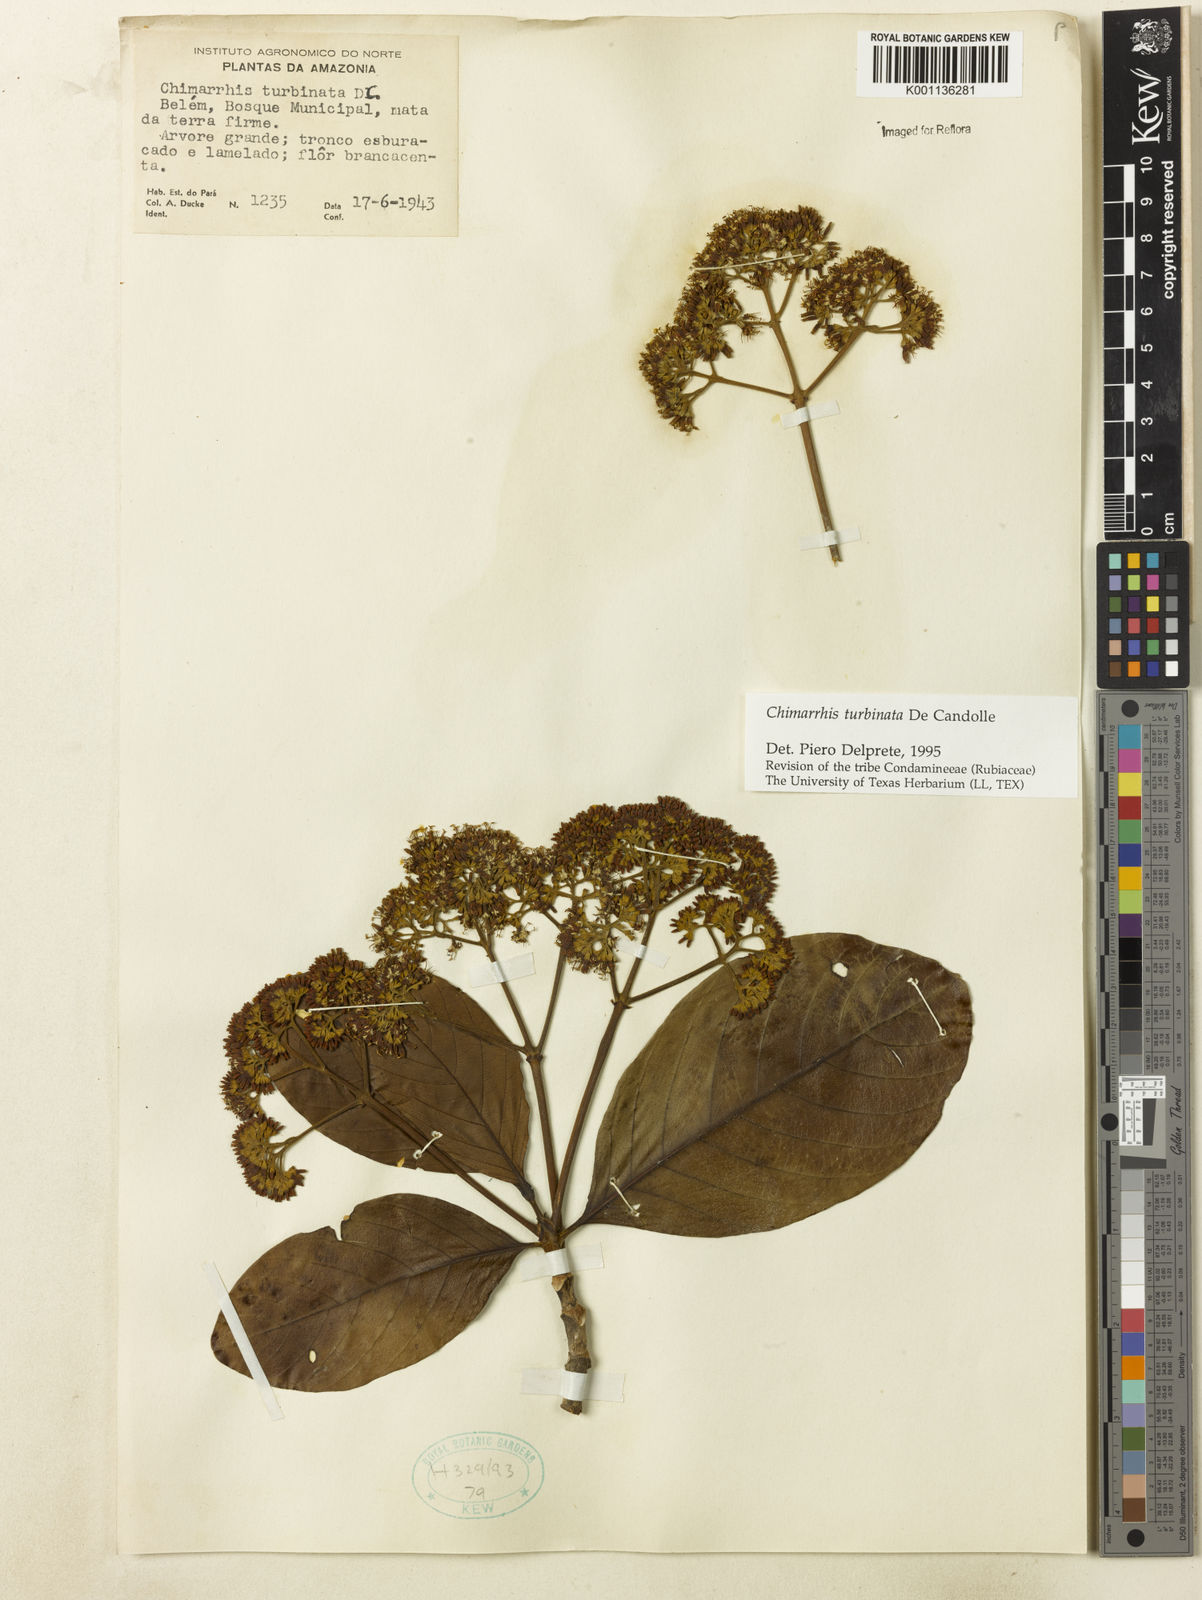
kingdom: Plantae
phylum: Tracheophyta
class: Magnoliopsida
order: Gentianales
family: Rubiaceae
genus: Chimarrhis
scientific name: Chimarrhis turbinata
